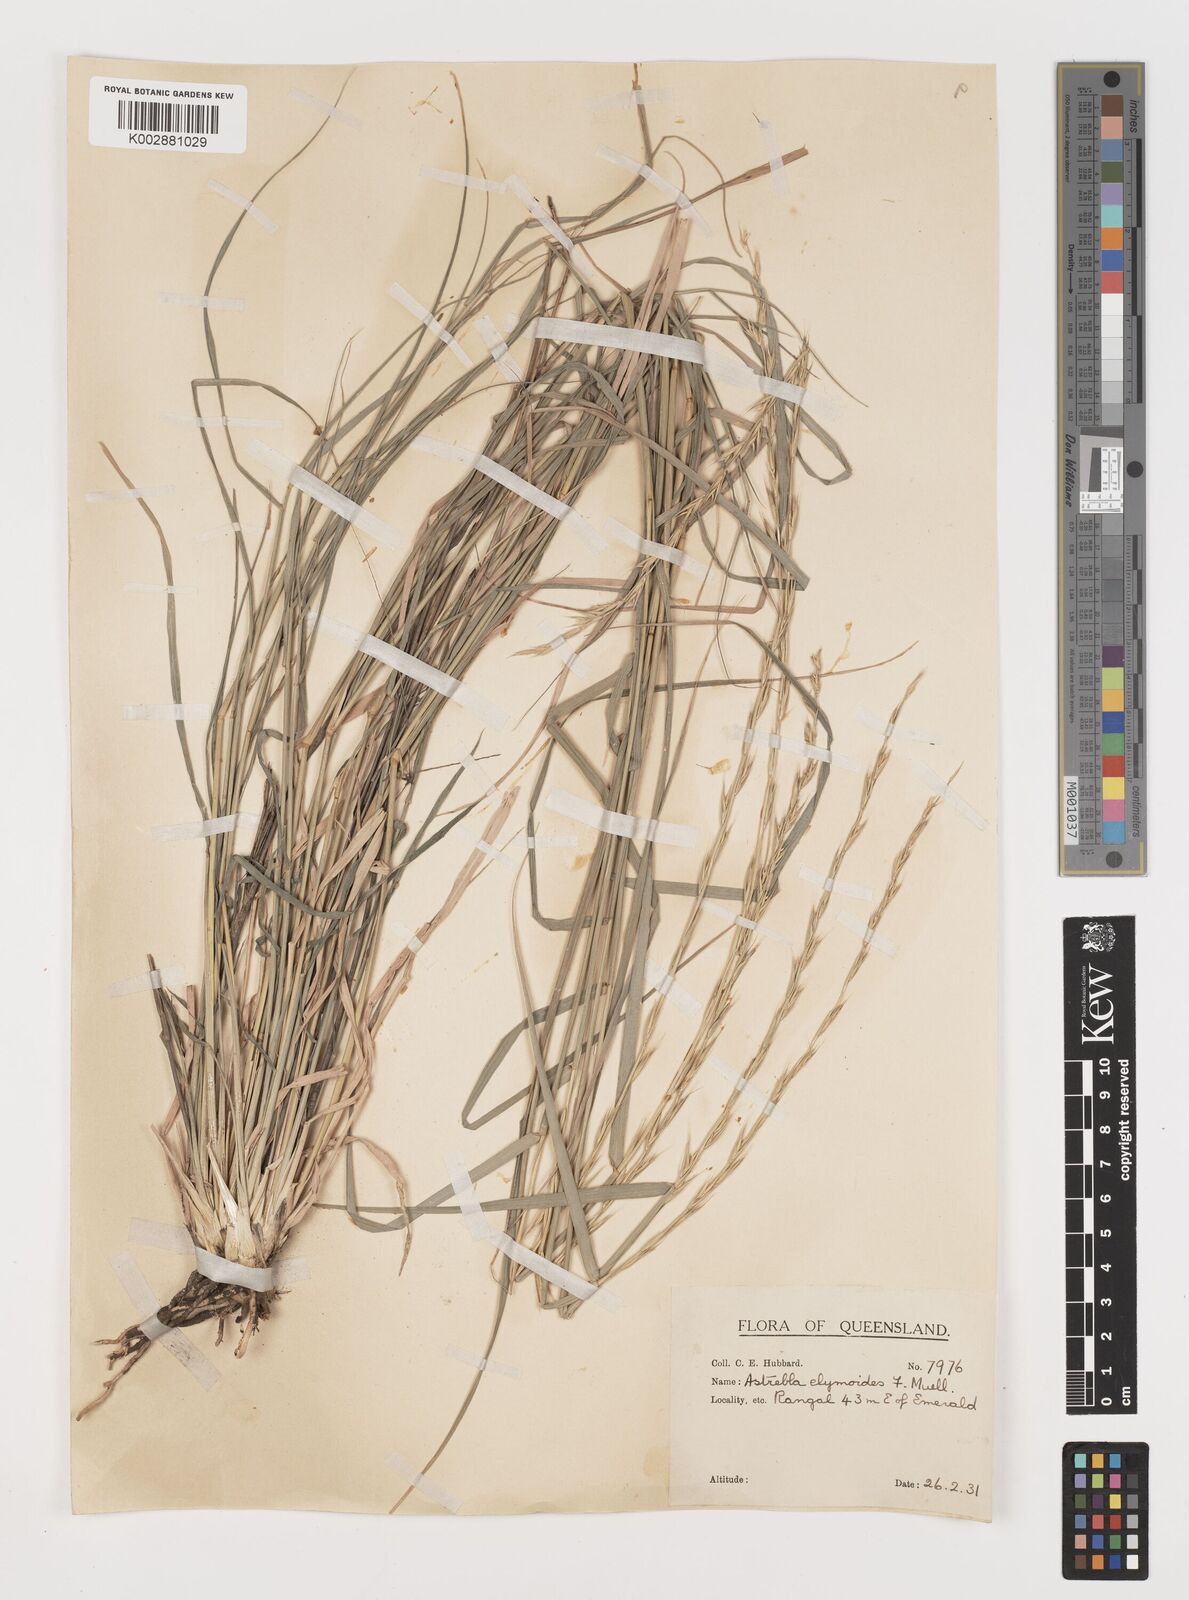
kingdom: Plantae
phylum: Tracheophyta
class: Liliopsida
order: Poales
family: Poaceae
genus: Astrebla
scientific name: Astrebla elymoides
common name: Hoop mitchell grass
